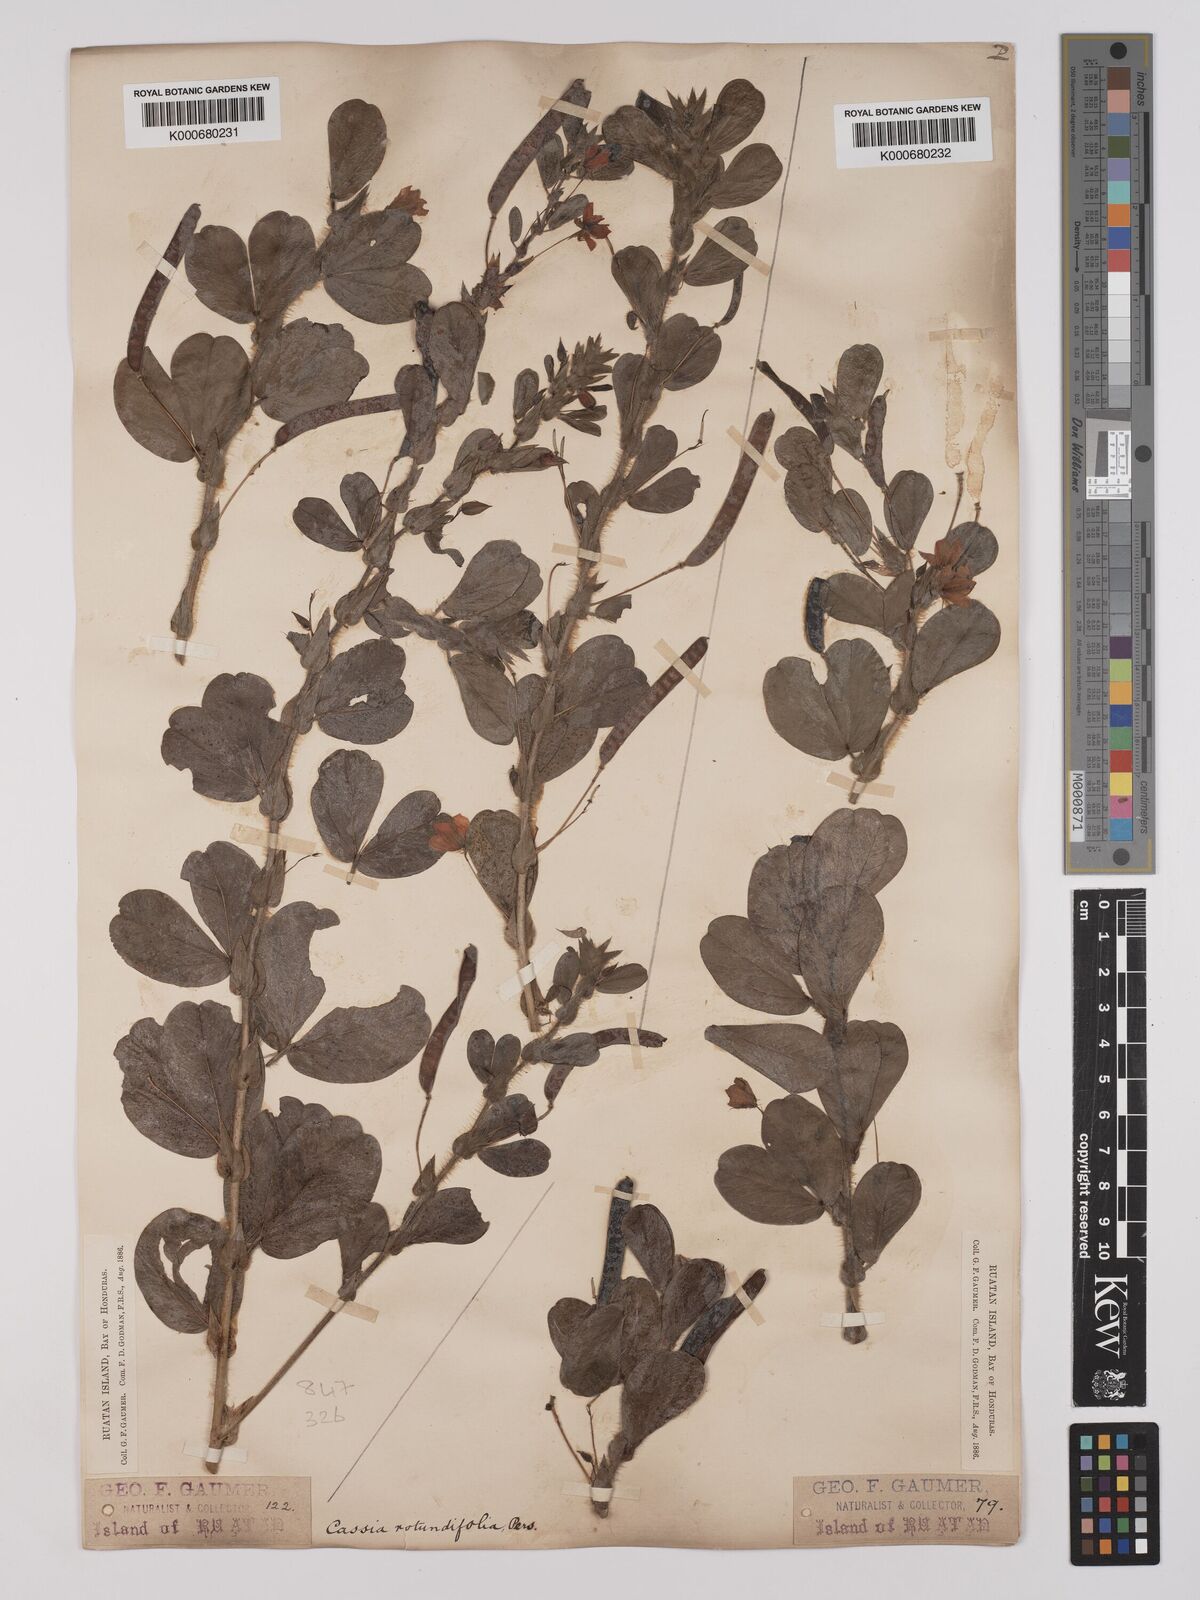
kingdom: Plantae
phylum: Tracheophyta
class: Magnoliopsida
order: Fabales
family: Fabaceae
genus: Chamaecrista
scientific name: Chamaecrista rotundifolia
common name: Round-leaf cassia
